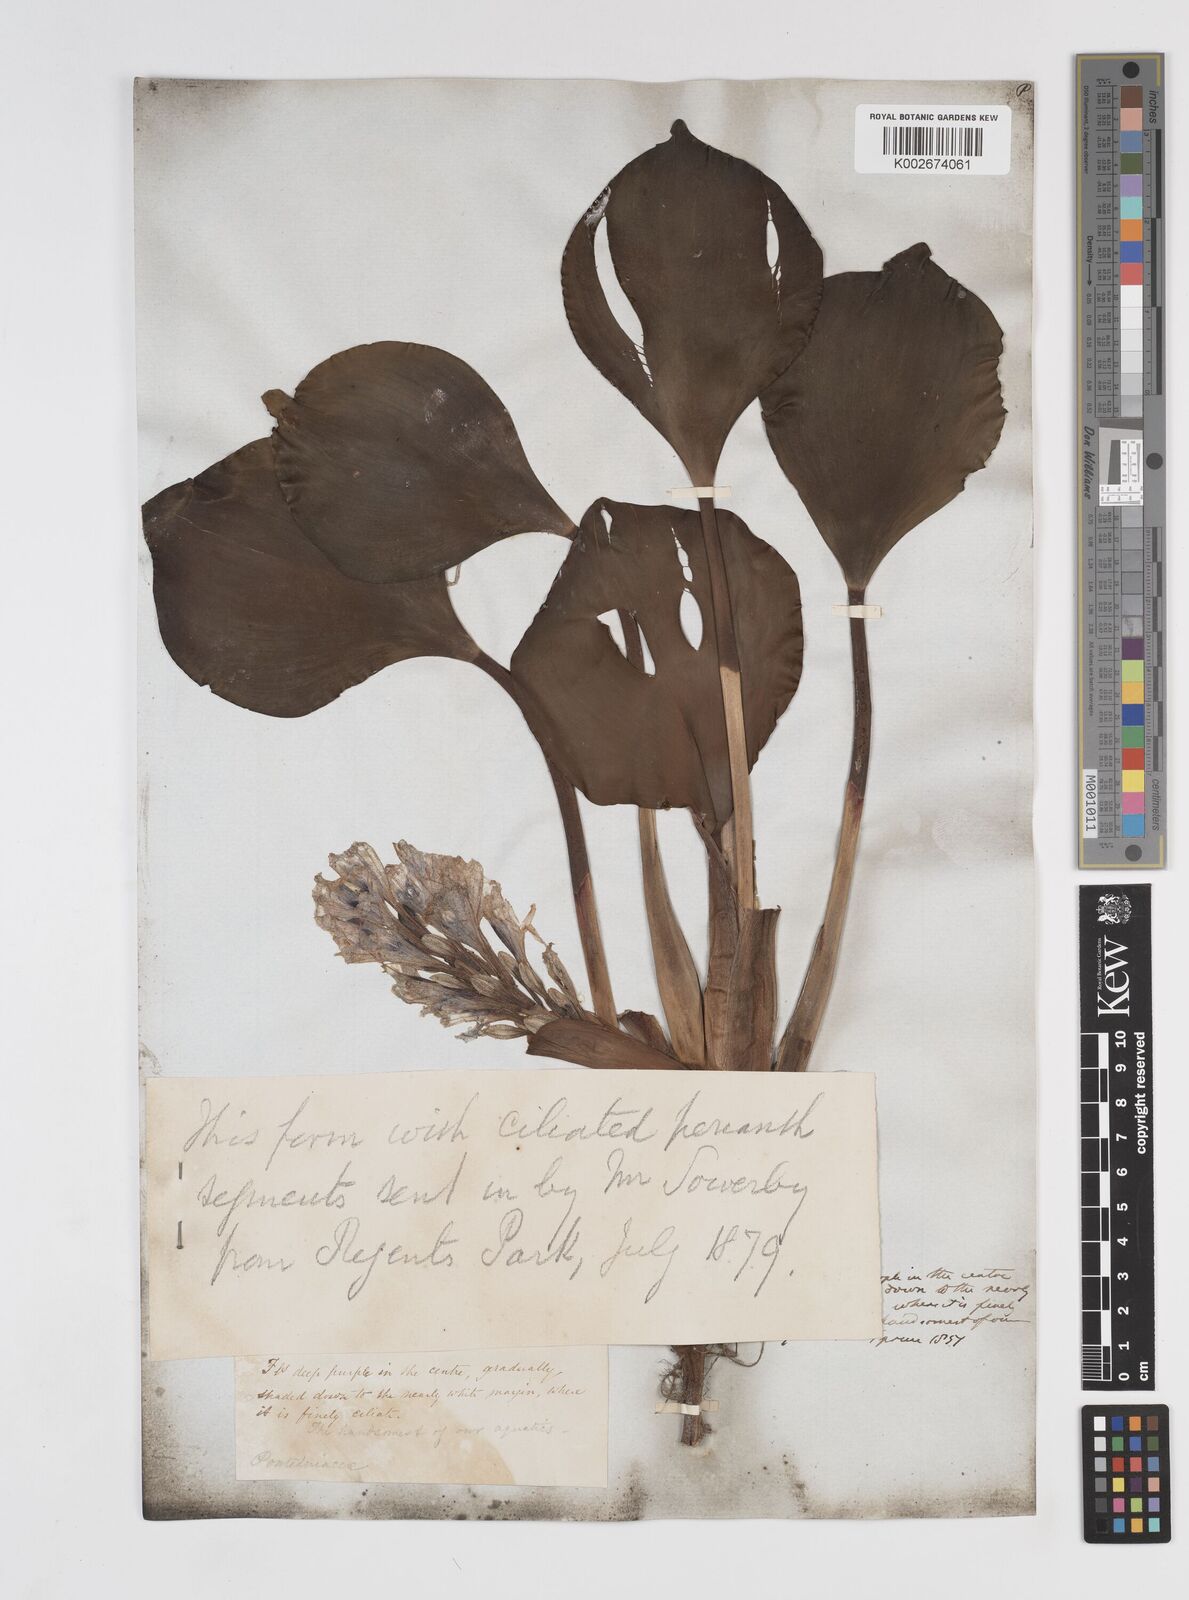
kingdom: Plantae
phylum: Tracheophyta
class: Liliopsida
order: Commelinales
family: Pontederiaceae
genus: Pontederia
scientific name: Pontederia azurea
